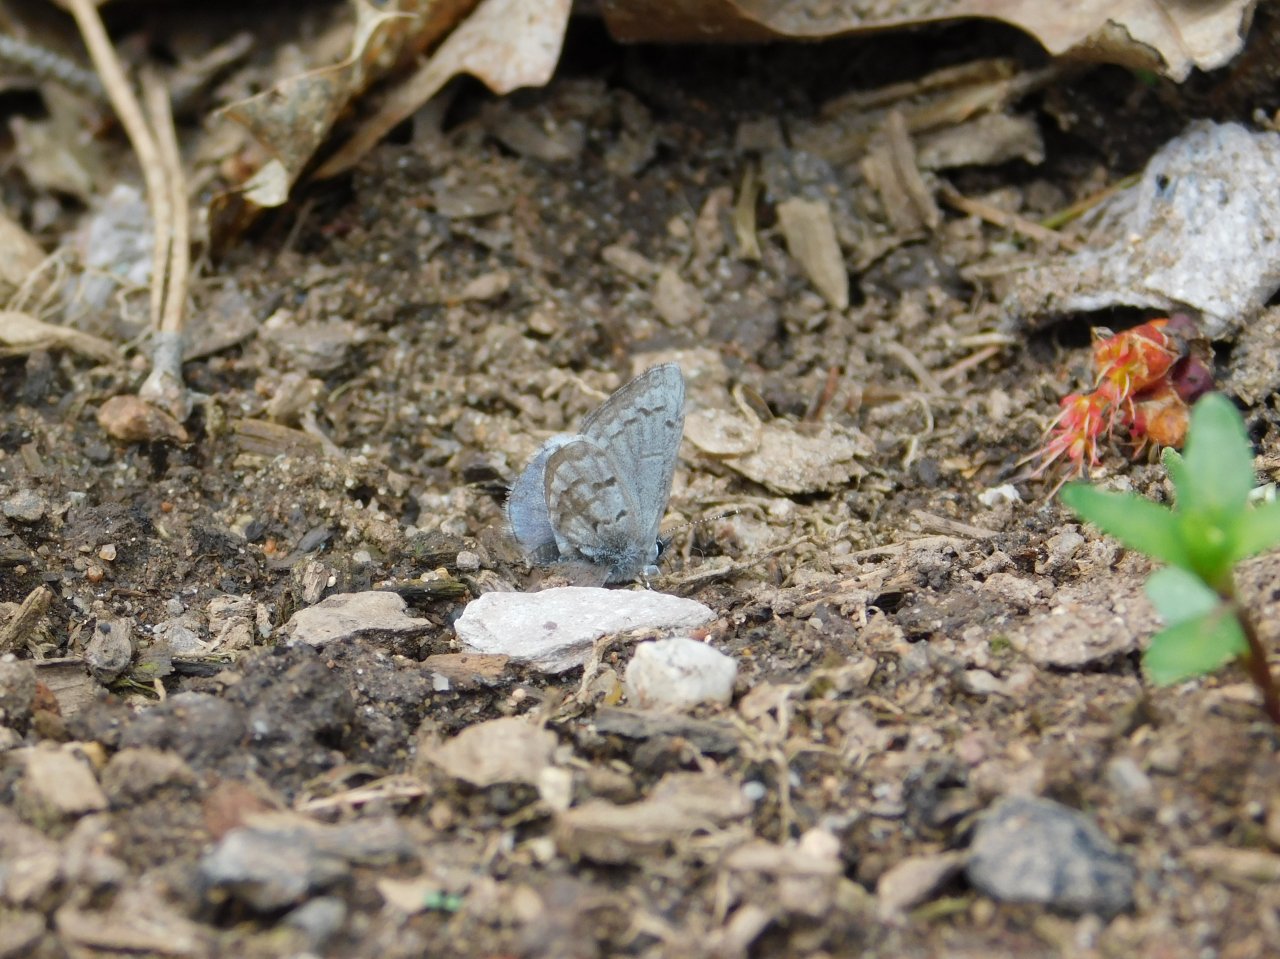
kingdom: Animalia
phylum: Arthropoda
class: Insecta
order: Lepidoptera
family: Lycaenidae
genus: Celastrina
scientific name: Celastrina lucia
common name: Northern Spring Azure
